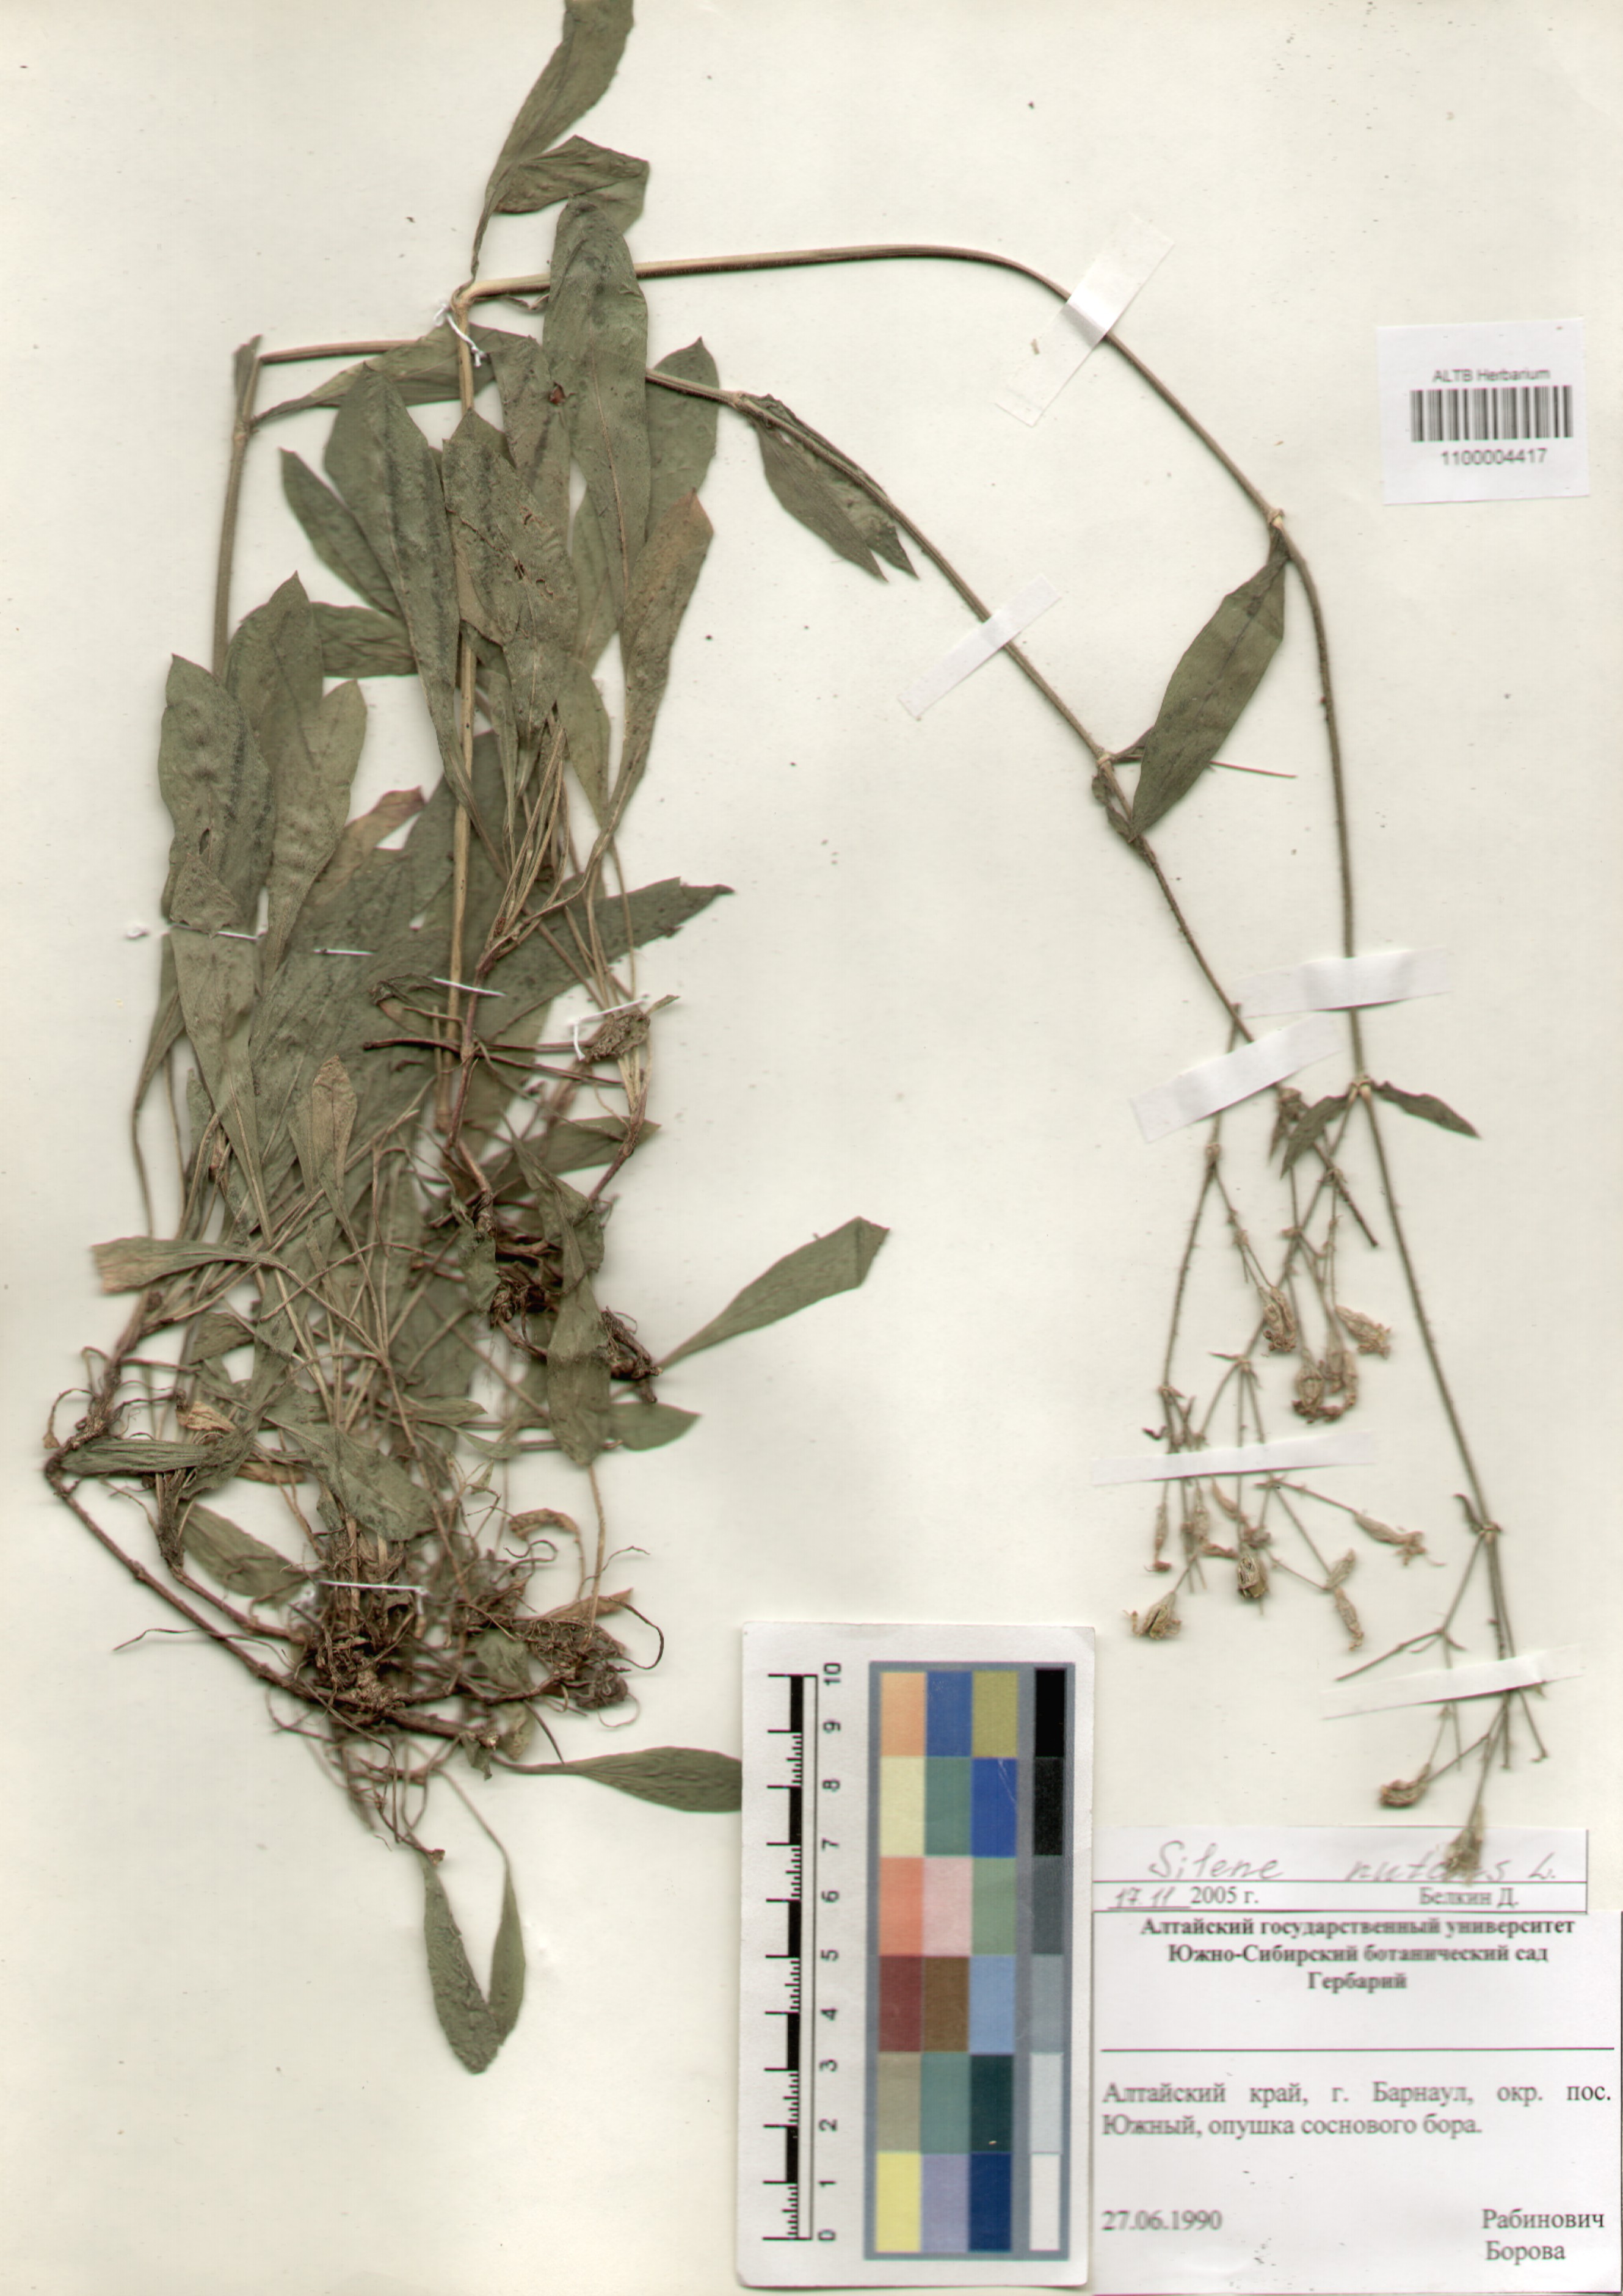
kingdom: Plantae
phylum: Tracheophyta
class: Magnoliopsida
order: Caryophyllales
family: Caryophyllaceae
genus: Silene
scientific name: Silene nutans
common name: Nottingham catchfly
